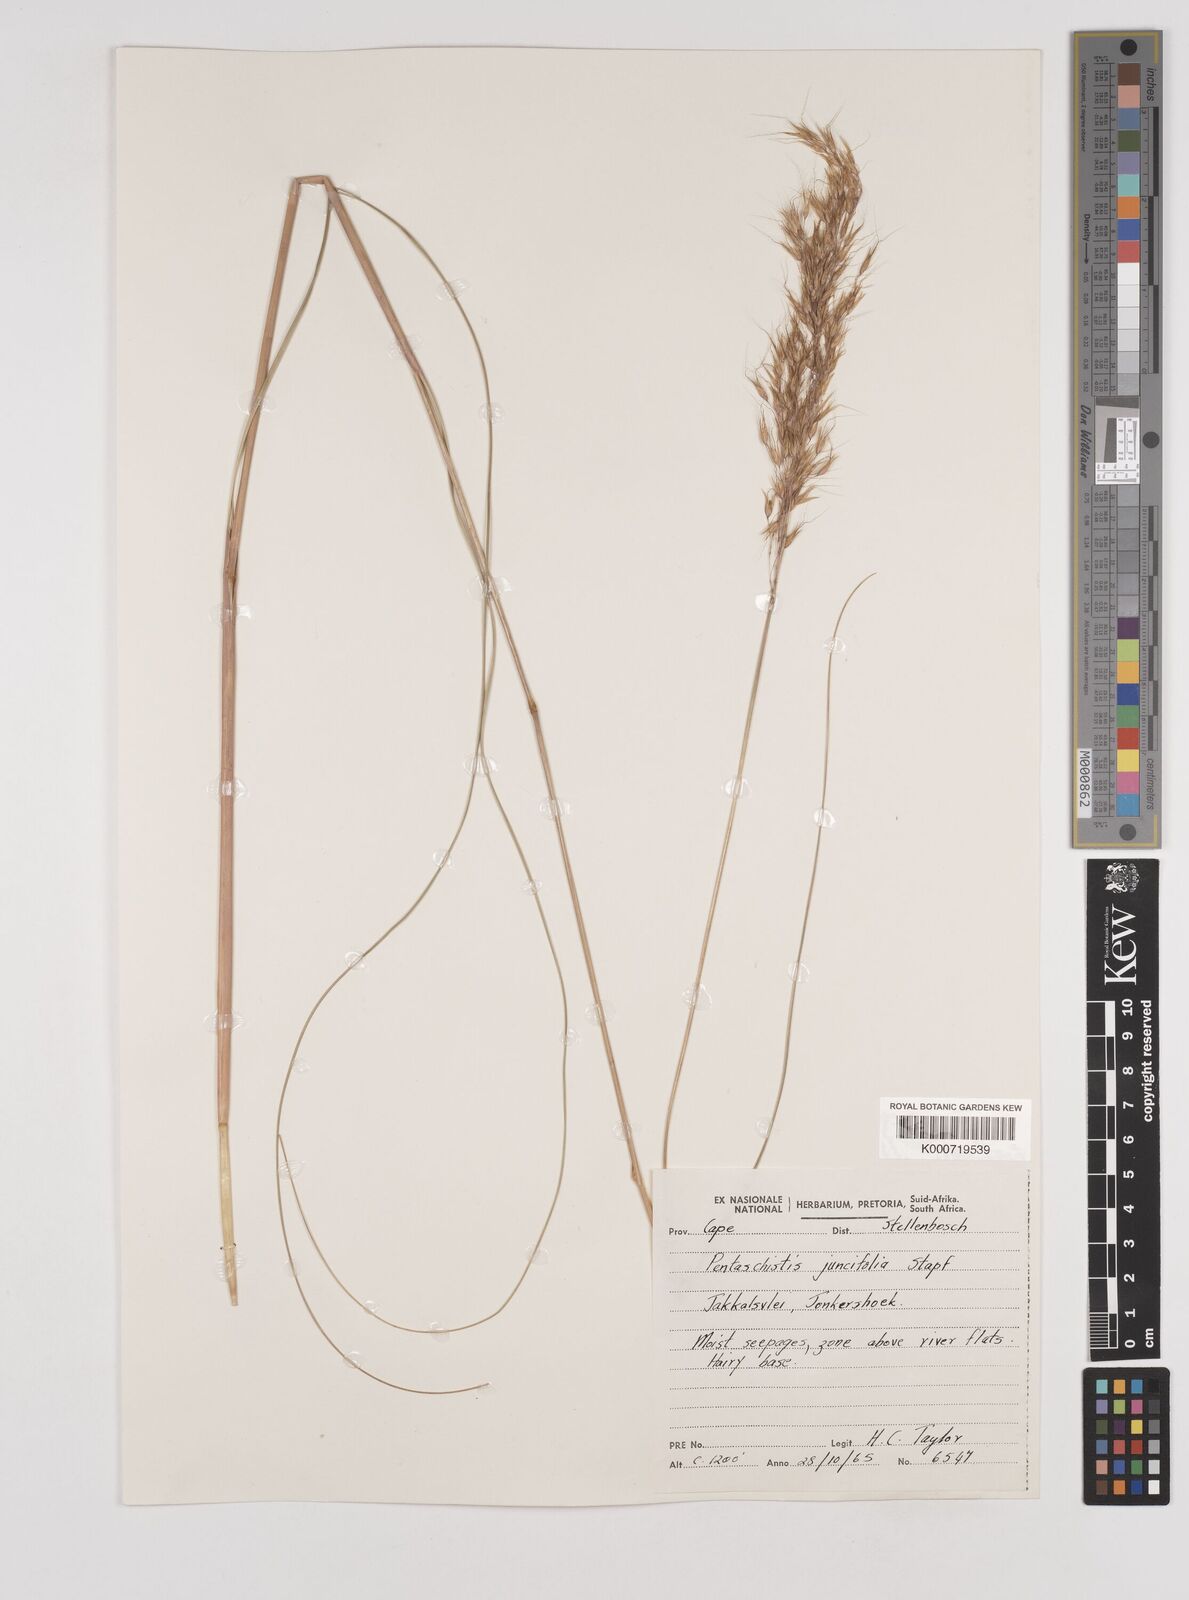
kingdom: Plantae
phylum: Tracheophyta
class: Liliopsida
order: Poales
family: Poaceae
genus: Pentameris
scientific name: Pentameris tortuosa
